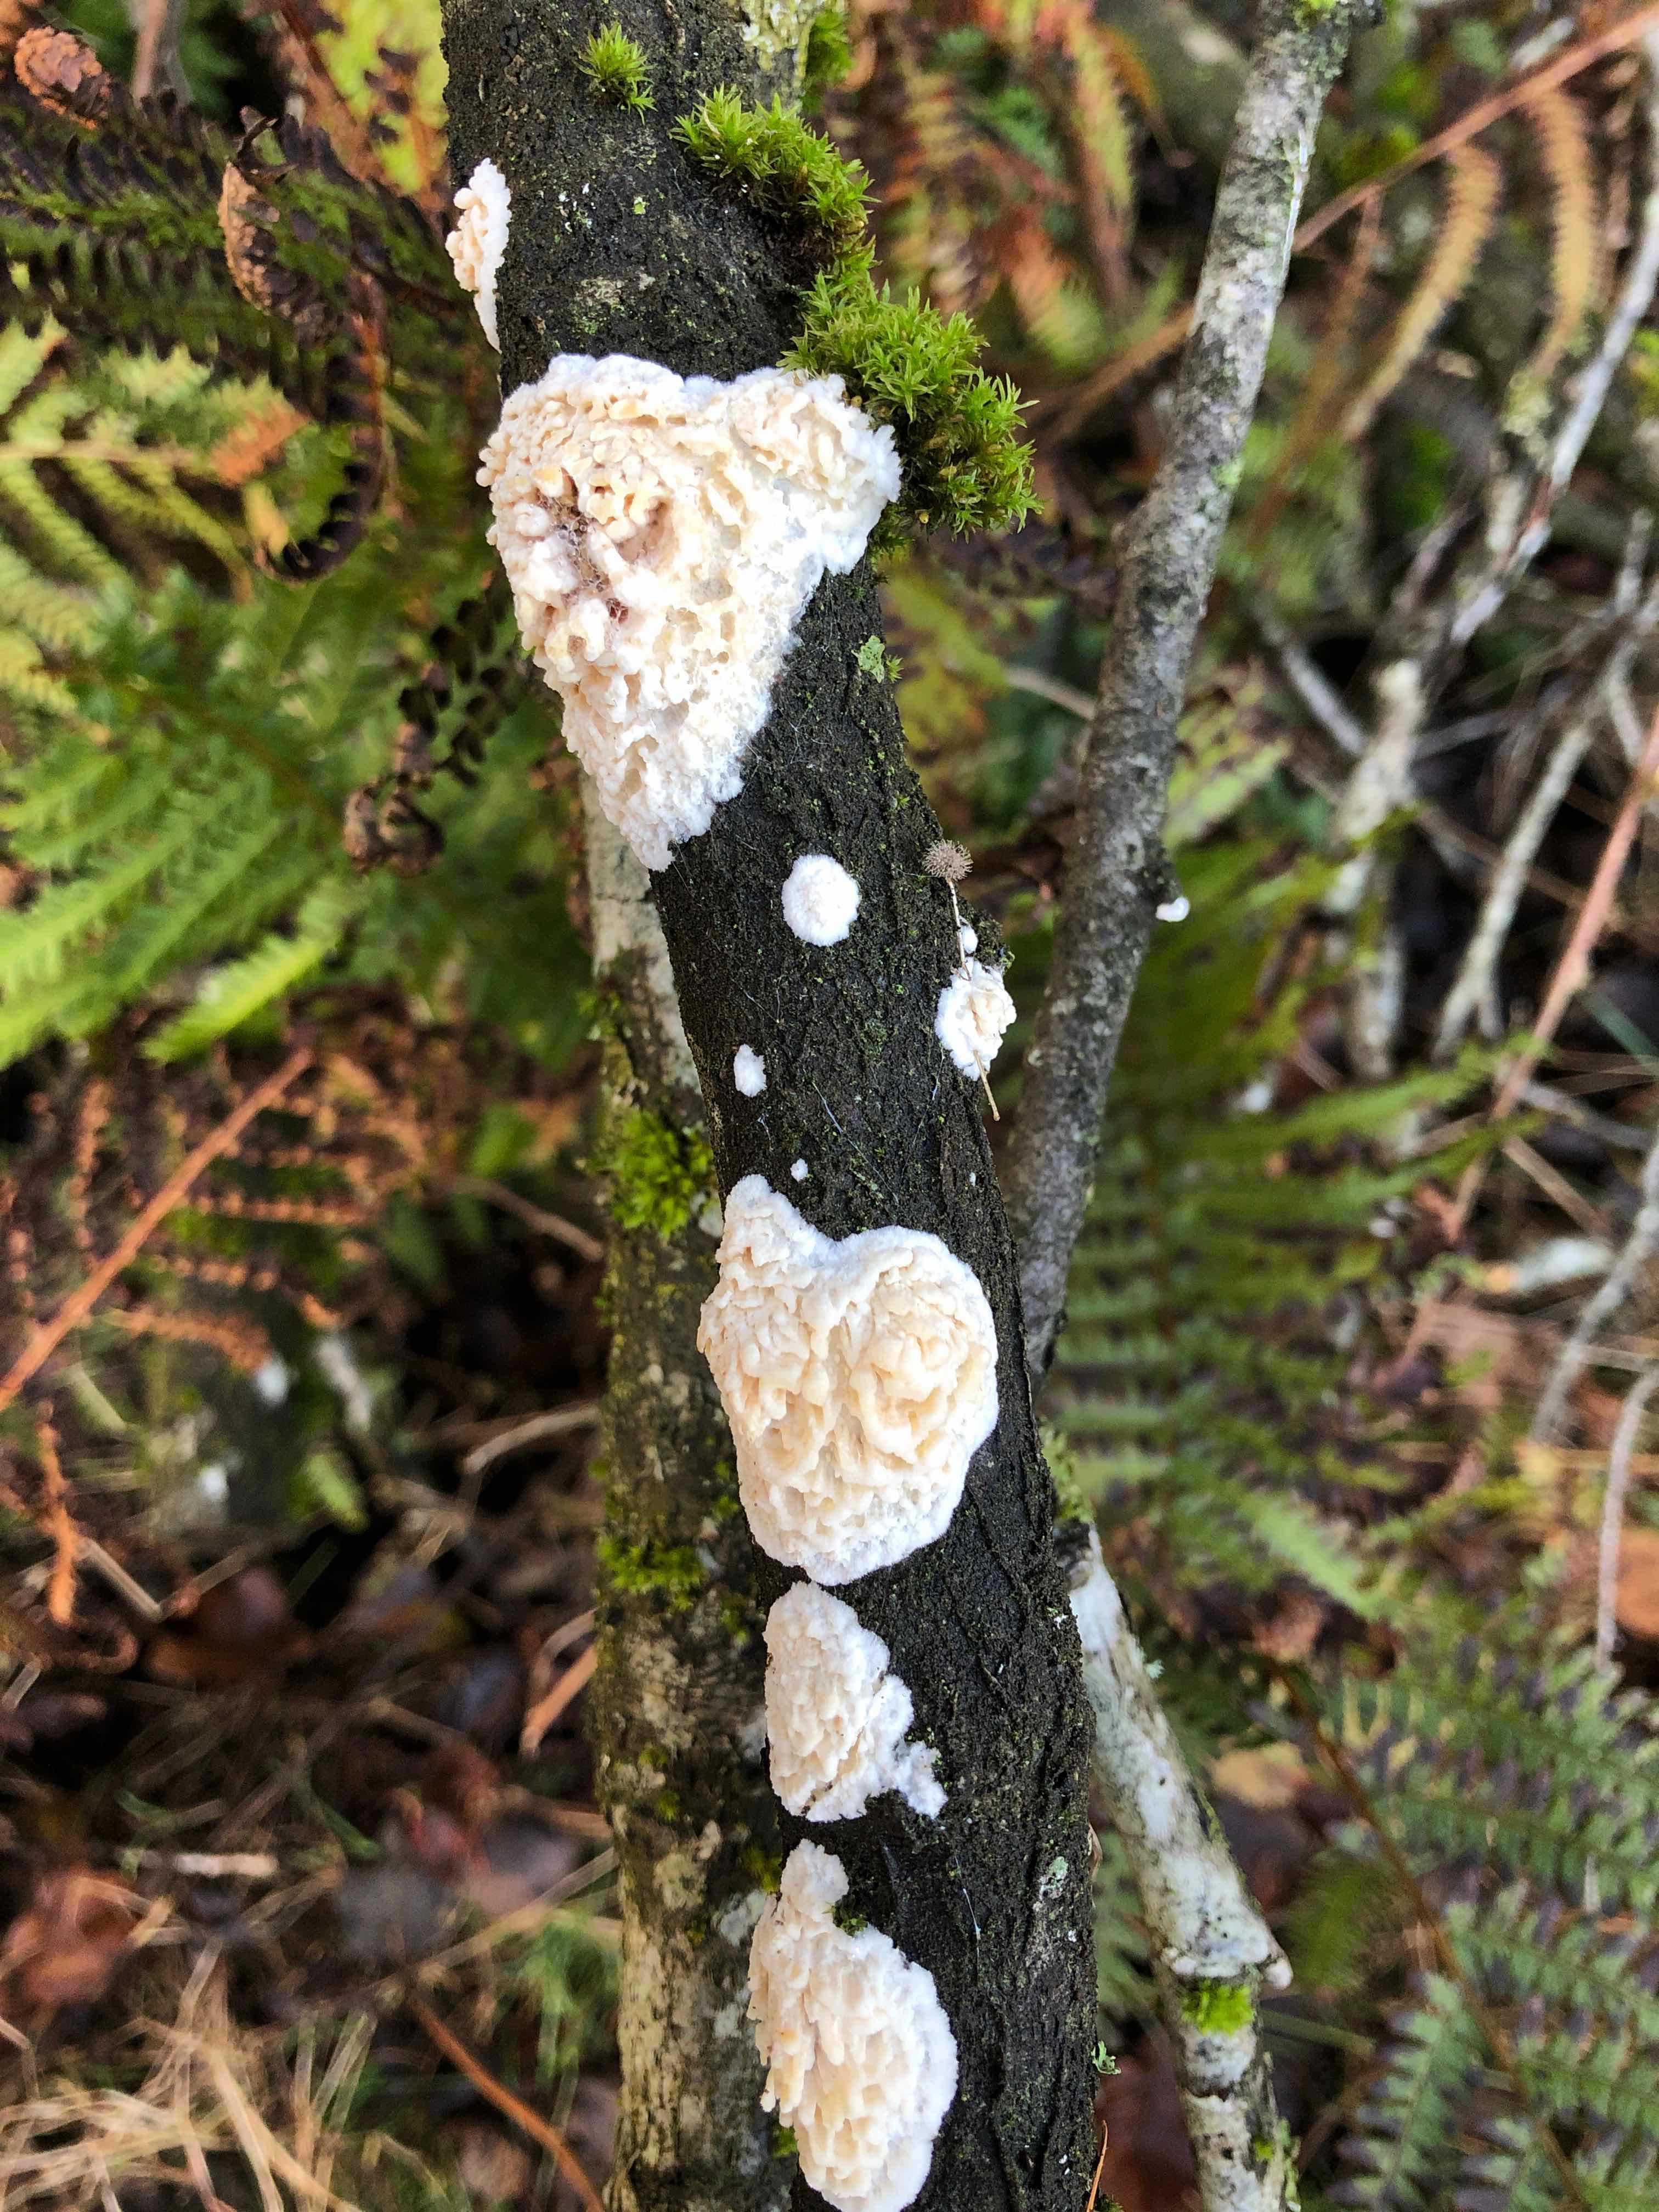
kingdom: Fungi
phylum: Basidiomycota
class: Agaricomycetes
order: Hymenochaetales
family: Schizoporaceae
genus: Xylodon
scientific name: Xylodon radula
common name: grovtandet kalkskind
